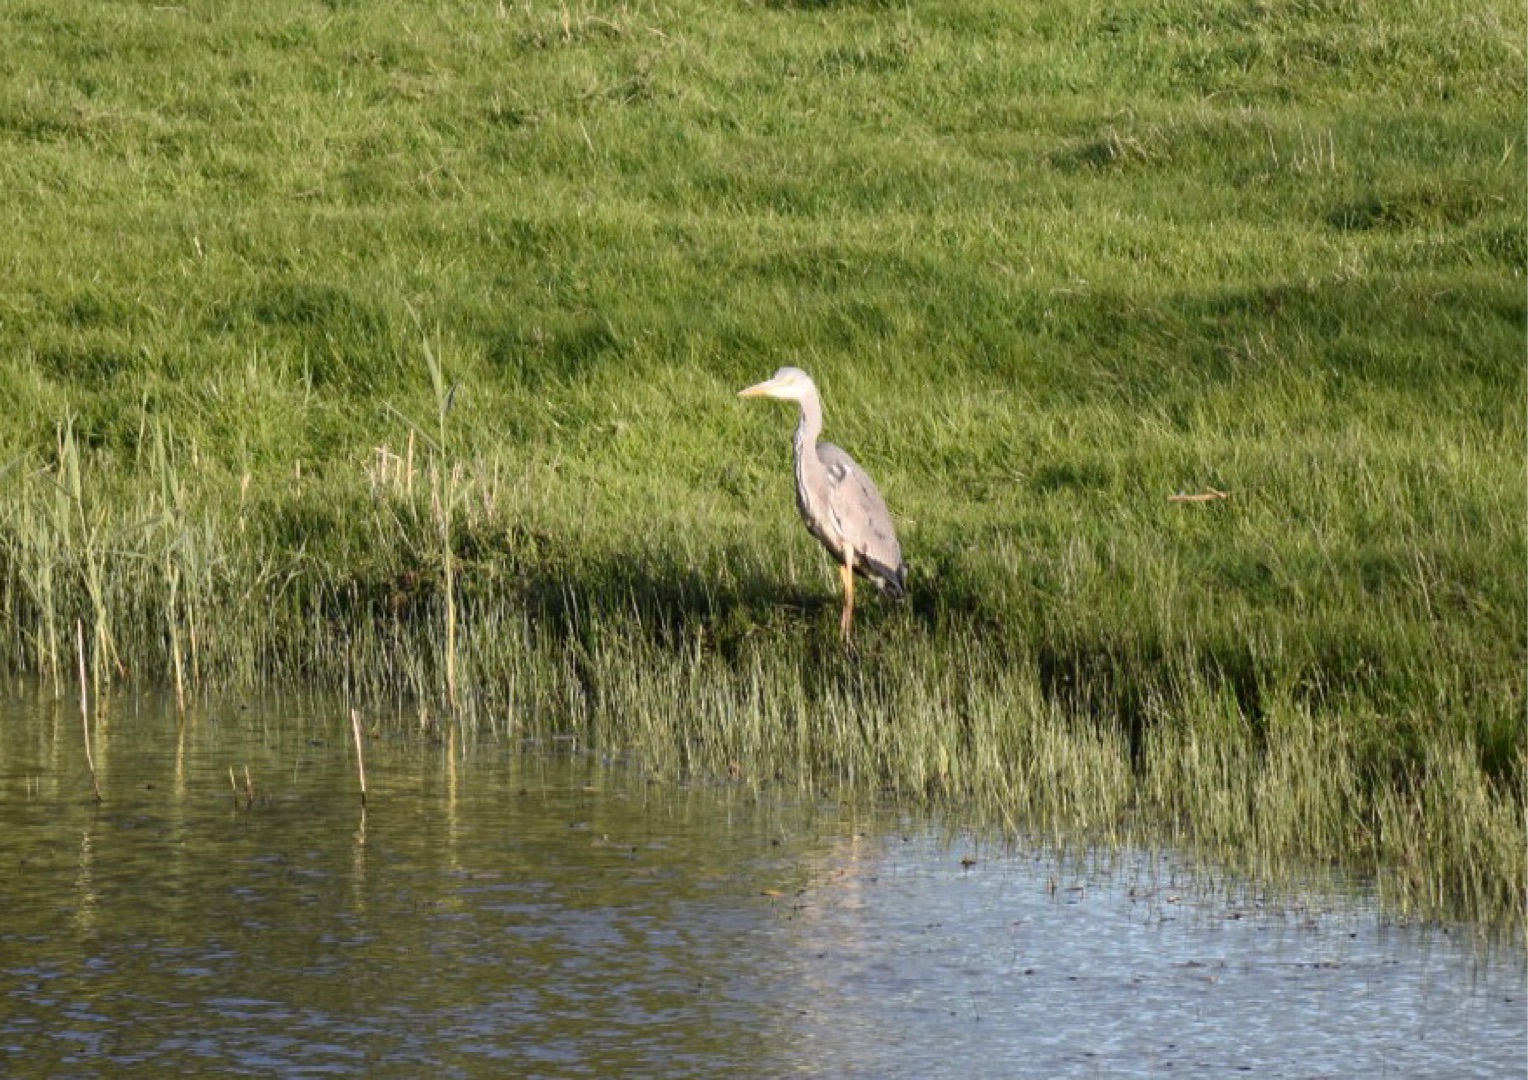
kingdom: Animalia
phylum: Chordata
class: Aves
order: Pelecaniformes
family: Ardeidae
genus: Ardea
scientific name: Ardea cinerea
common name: Fiskehejre
